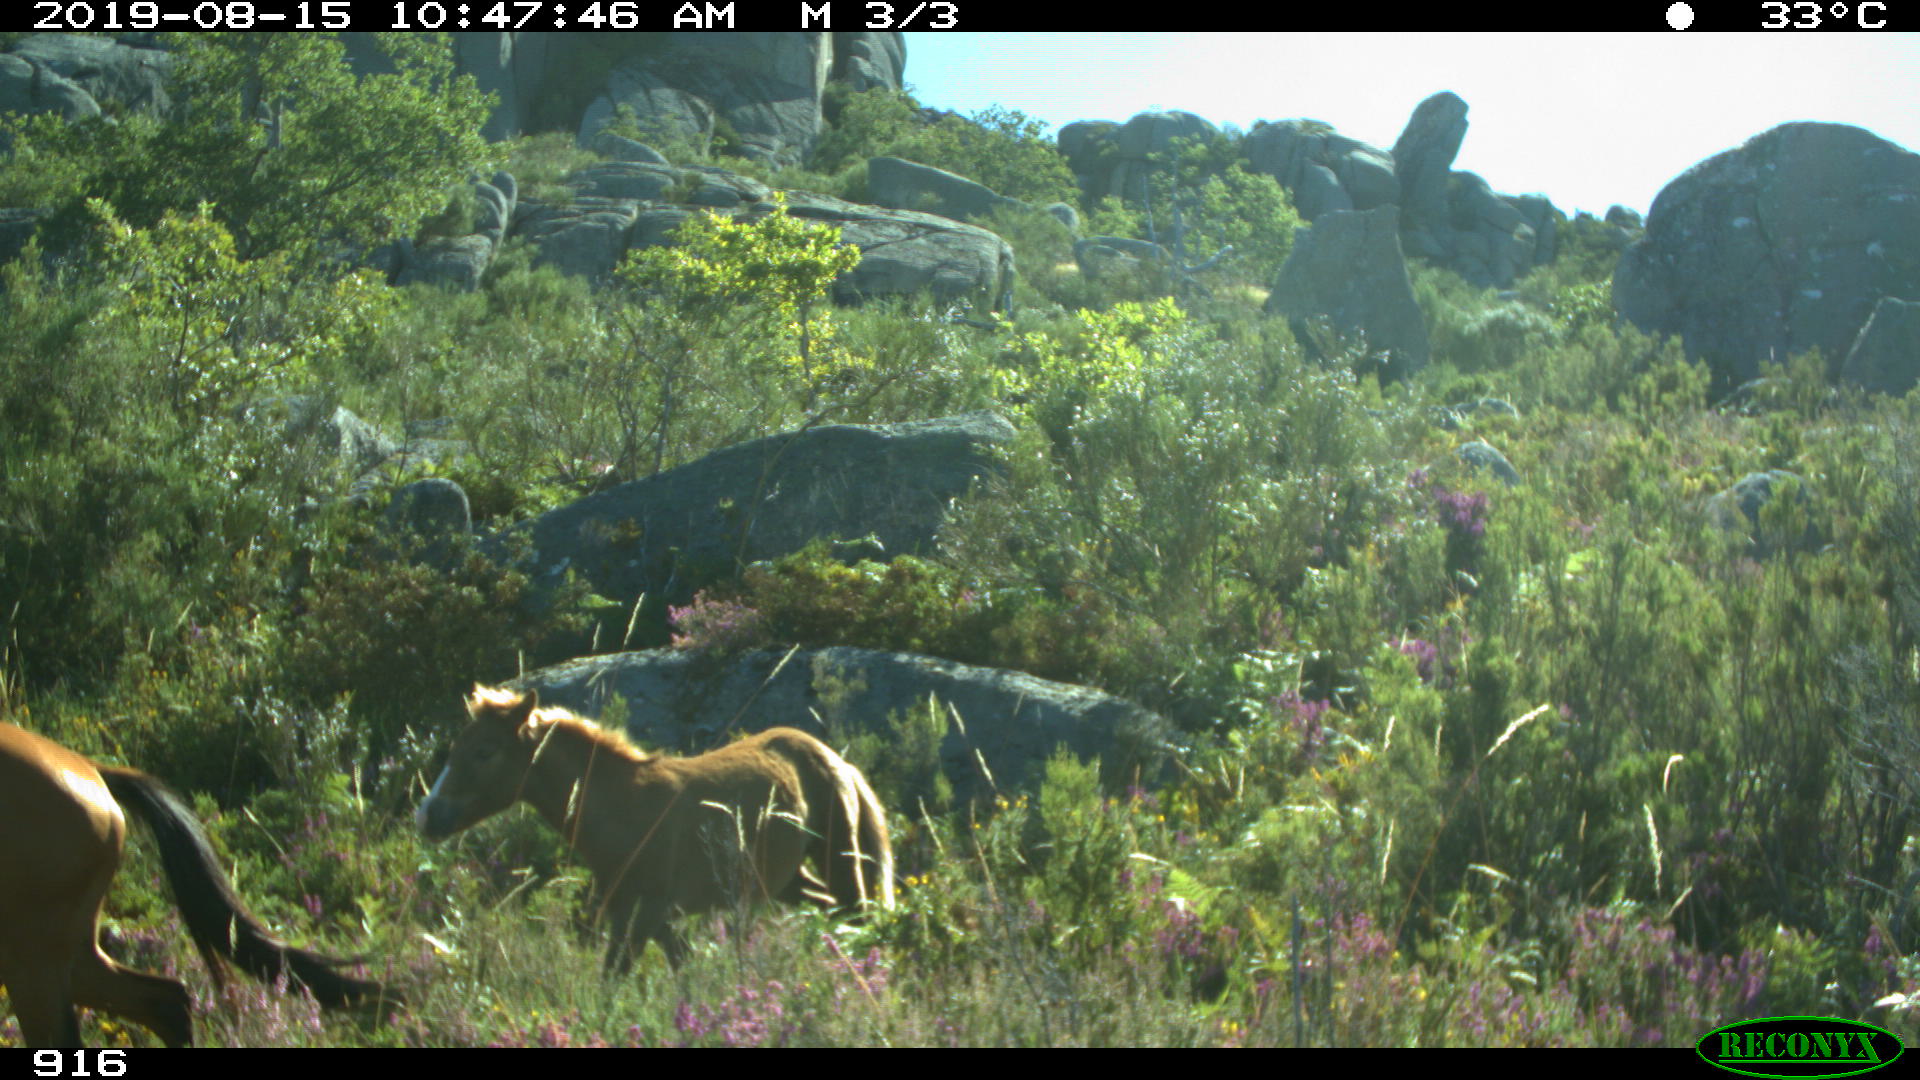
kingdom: Animalia
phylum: Chordata
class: Mammalia
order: Perissodactyla
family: Equidae
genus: Equus
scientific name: Equus caballus
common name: Horse
